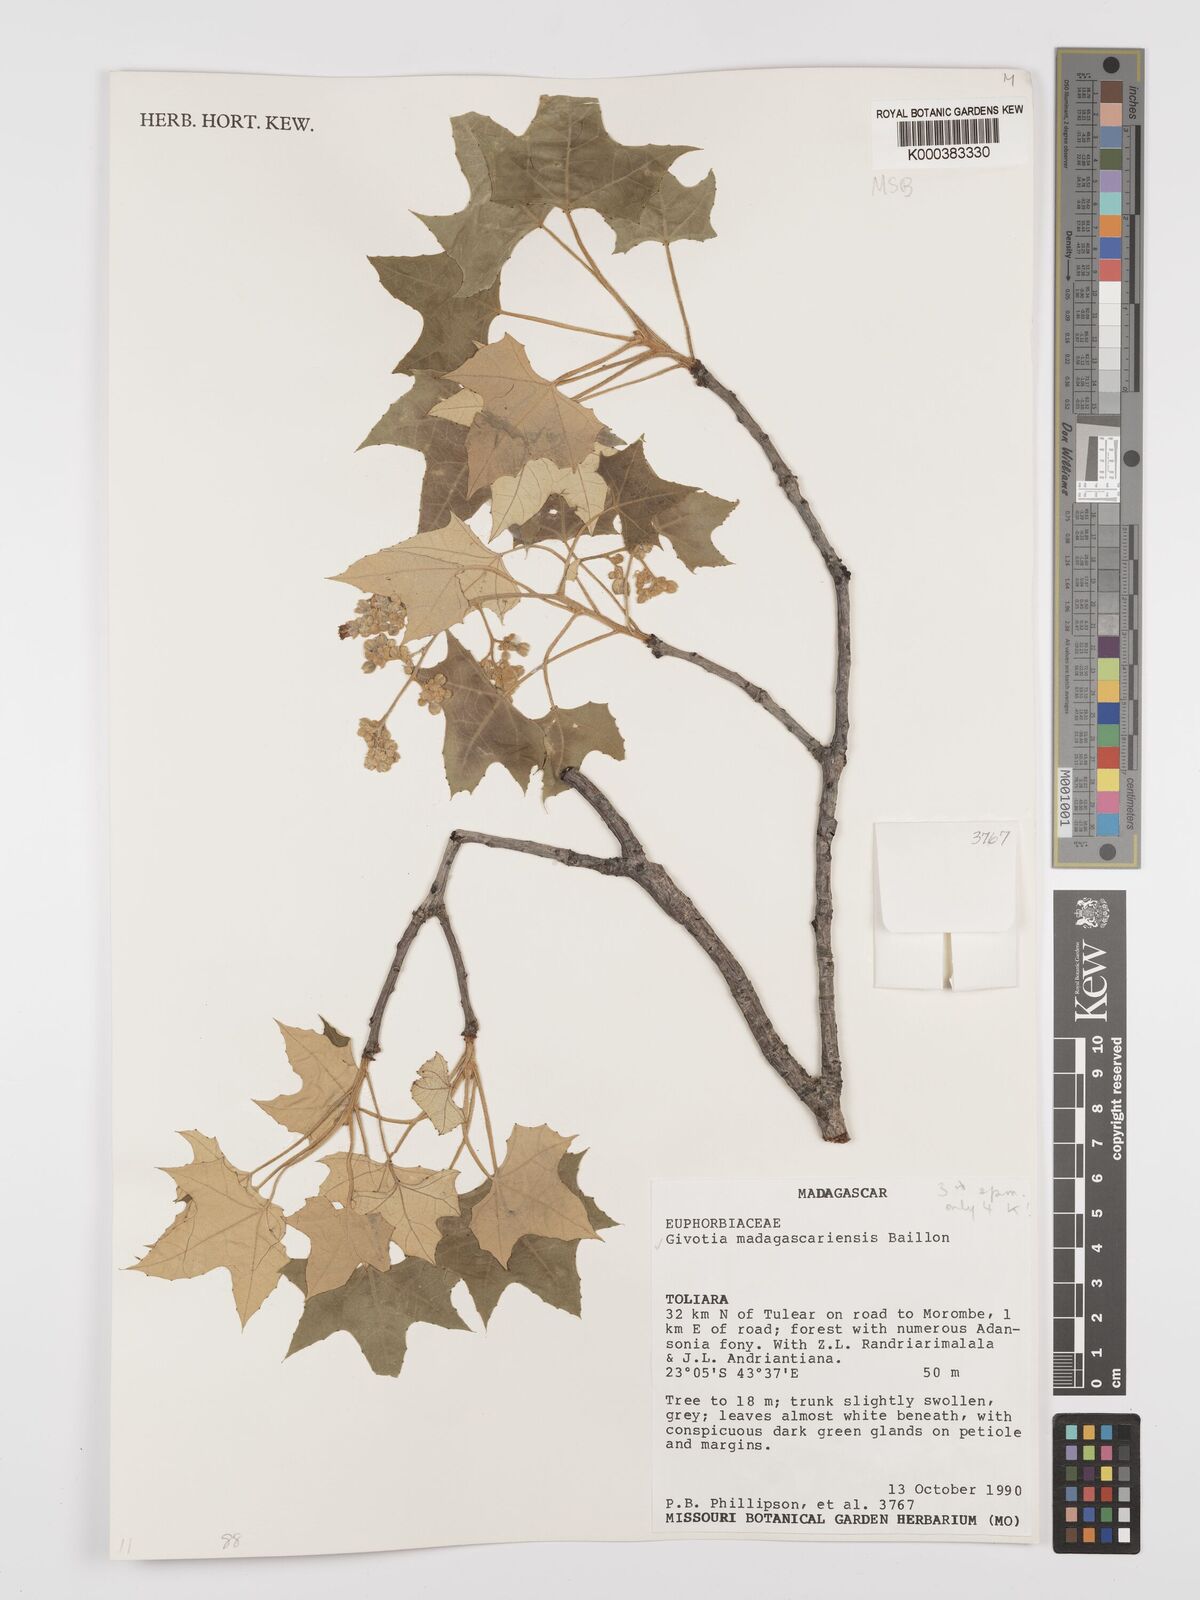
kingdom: Plantae
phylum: Tracheophyta
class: Magnoliopsida
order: Malpighiales
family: Euphorbiaceae
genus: Givotia
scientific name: Givotia madagascariensis
